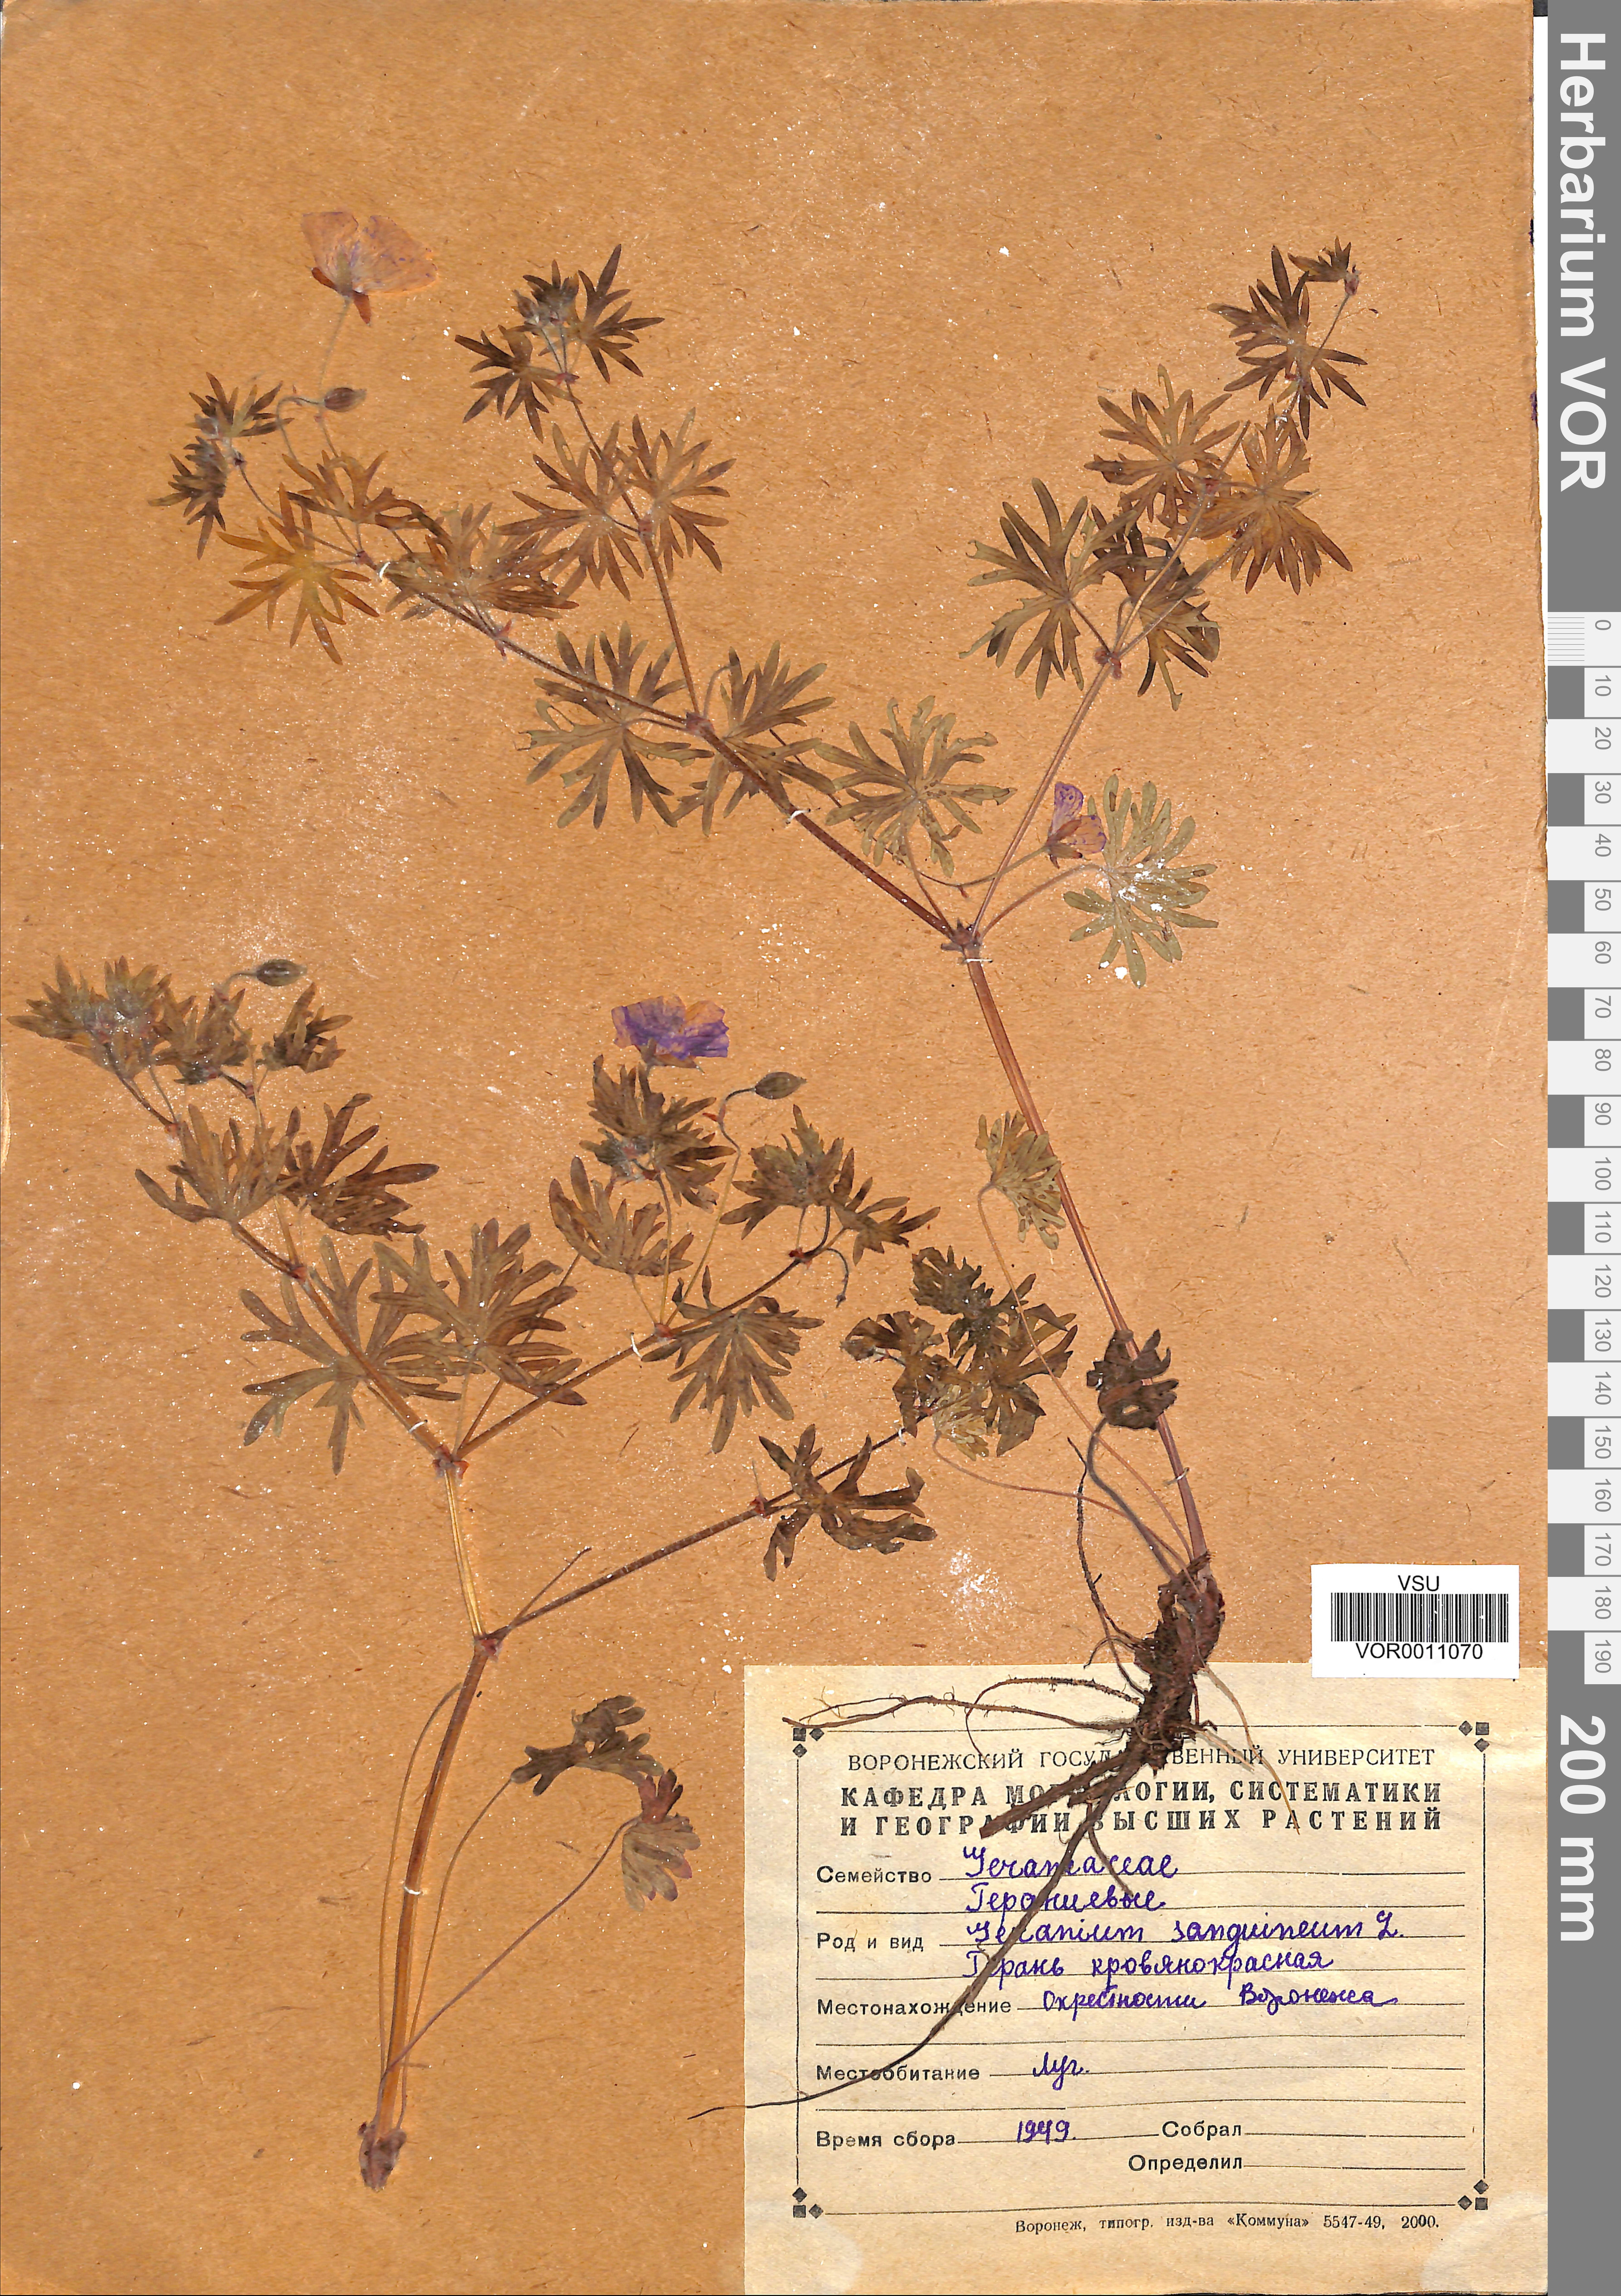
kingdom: Plantae
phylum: Tracheophyta
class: Magnoliopsida
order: Geraniales
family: Geraniaceae
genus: Geranium
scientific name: Geranium sanguineum
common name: Bloody crane's-bill
